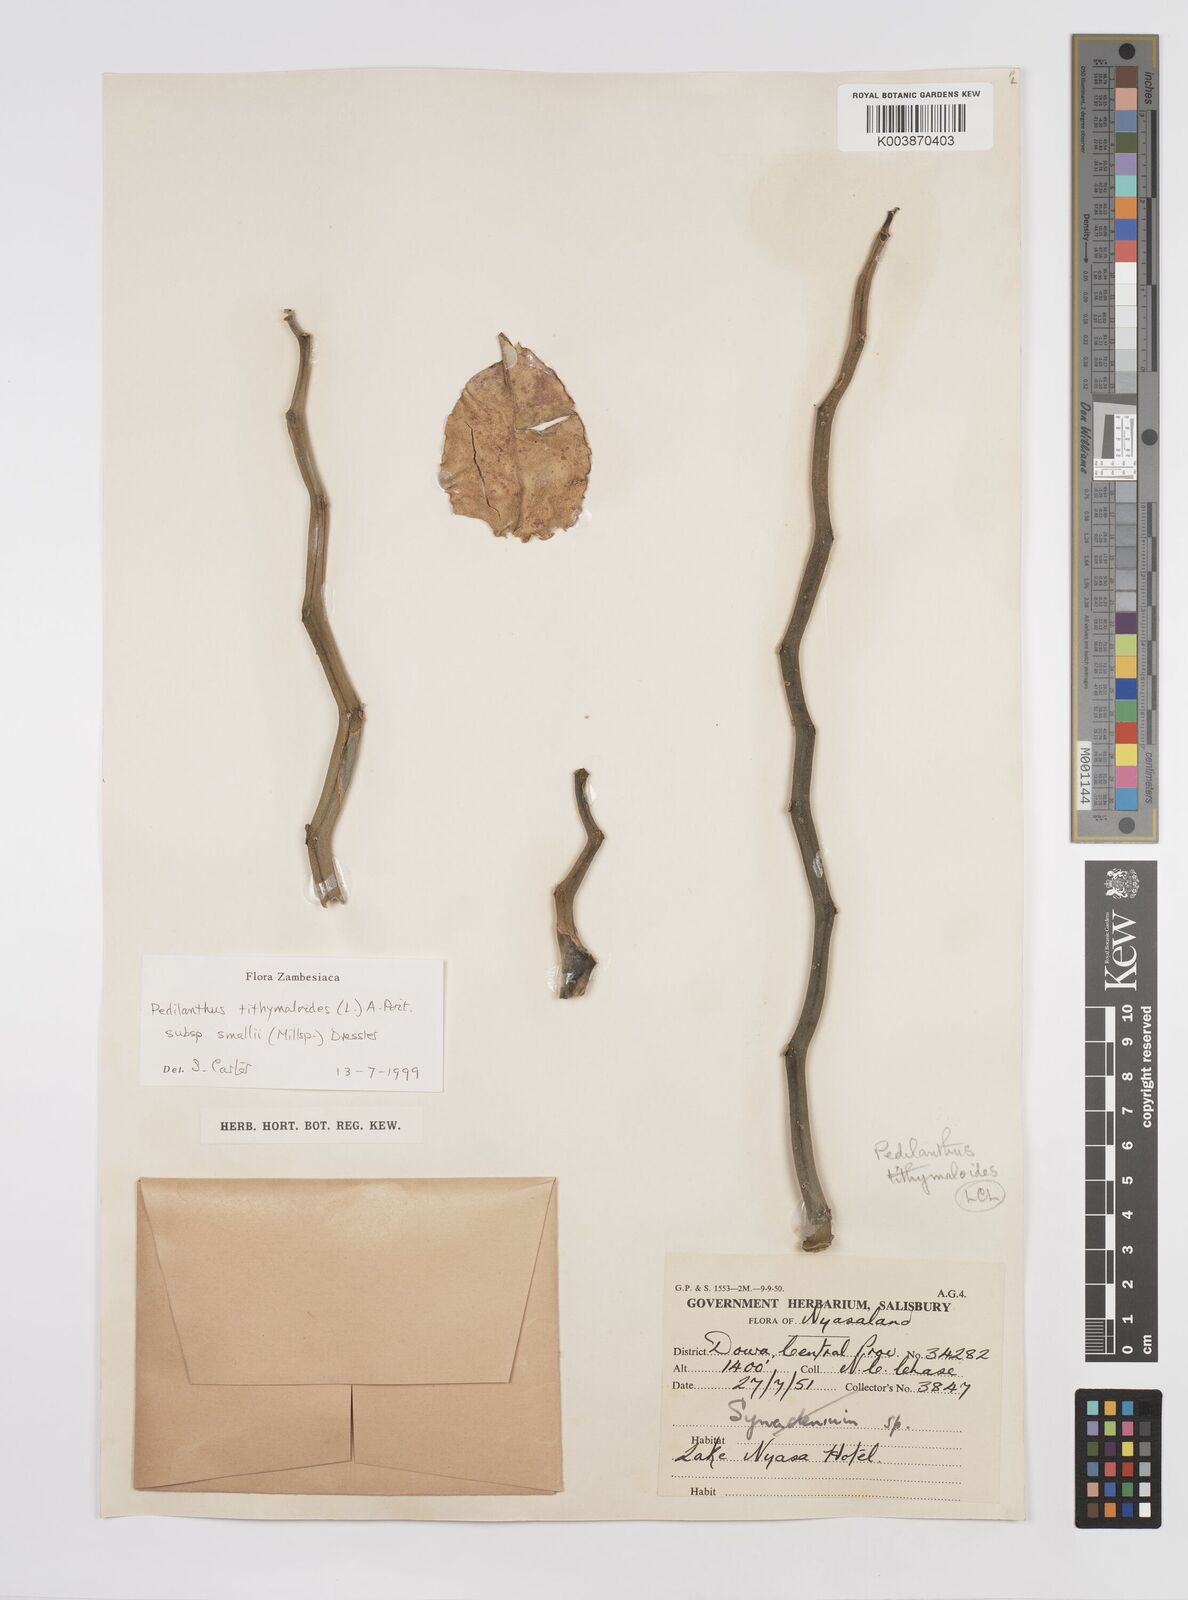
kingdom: Plantae
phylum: Tracheophyta
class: Magnoliopsida
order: Malpighiales
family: Euphorbiaceae
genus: Euphorbia
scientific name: Euphorbia tithymaloides
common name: Slipperplant
